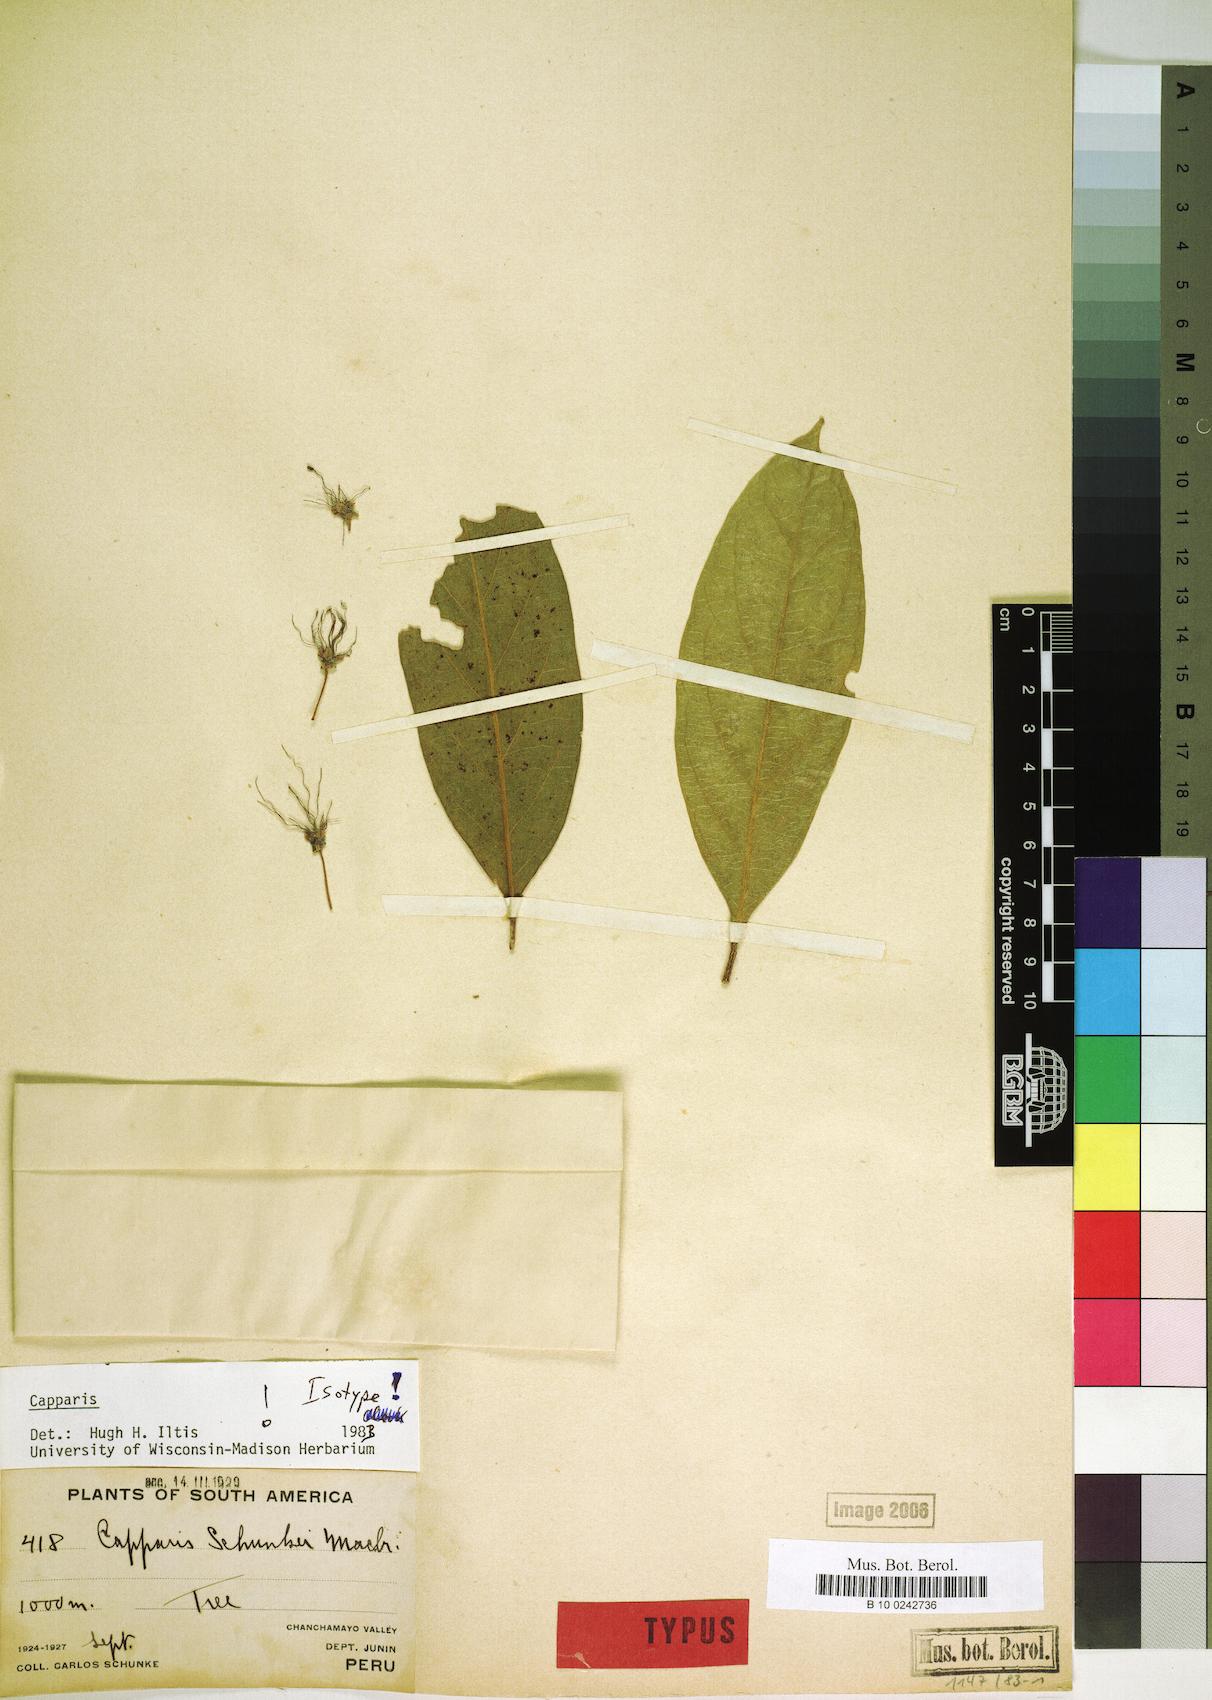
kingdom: Plantae
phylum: Tracheophyta
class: Magnoliopsida
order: Brassicales
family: Capparaceae
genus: Preslianthus
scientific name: Preslianthus detonsus
